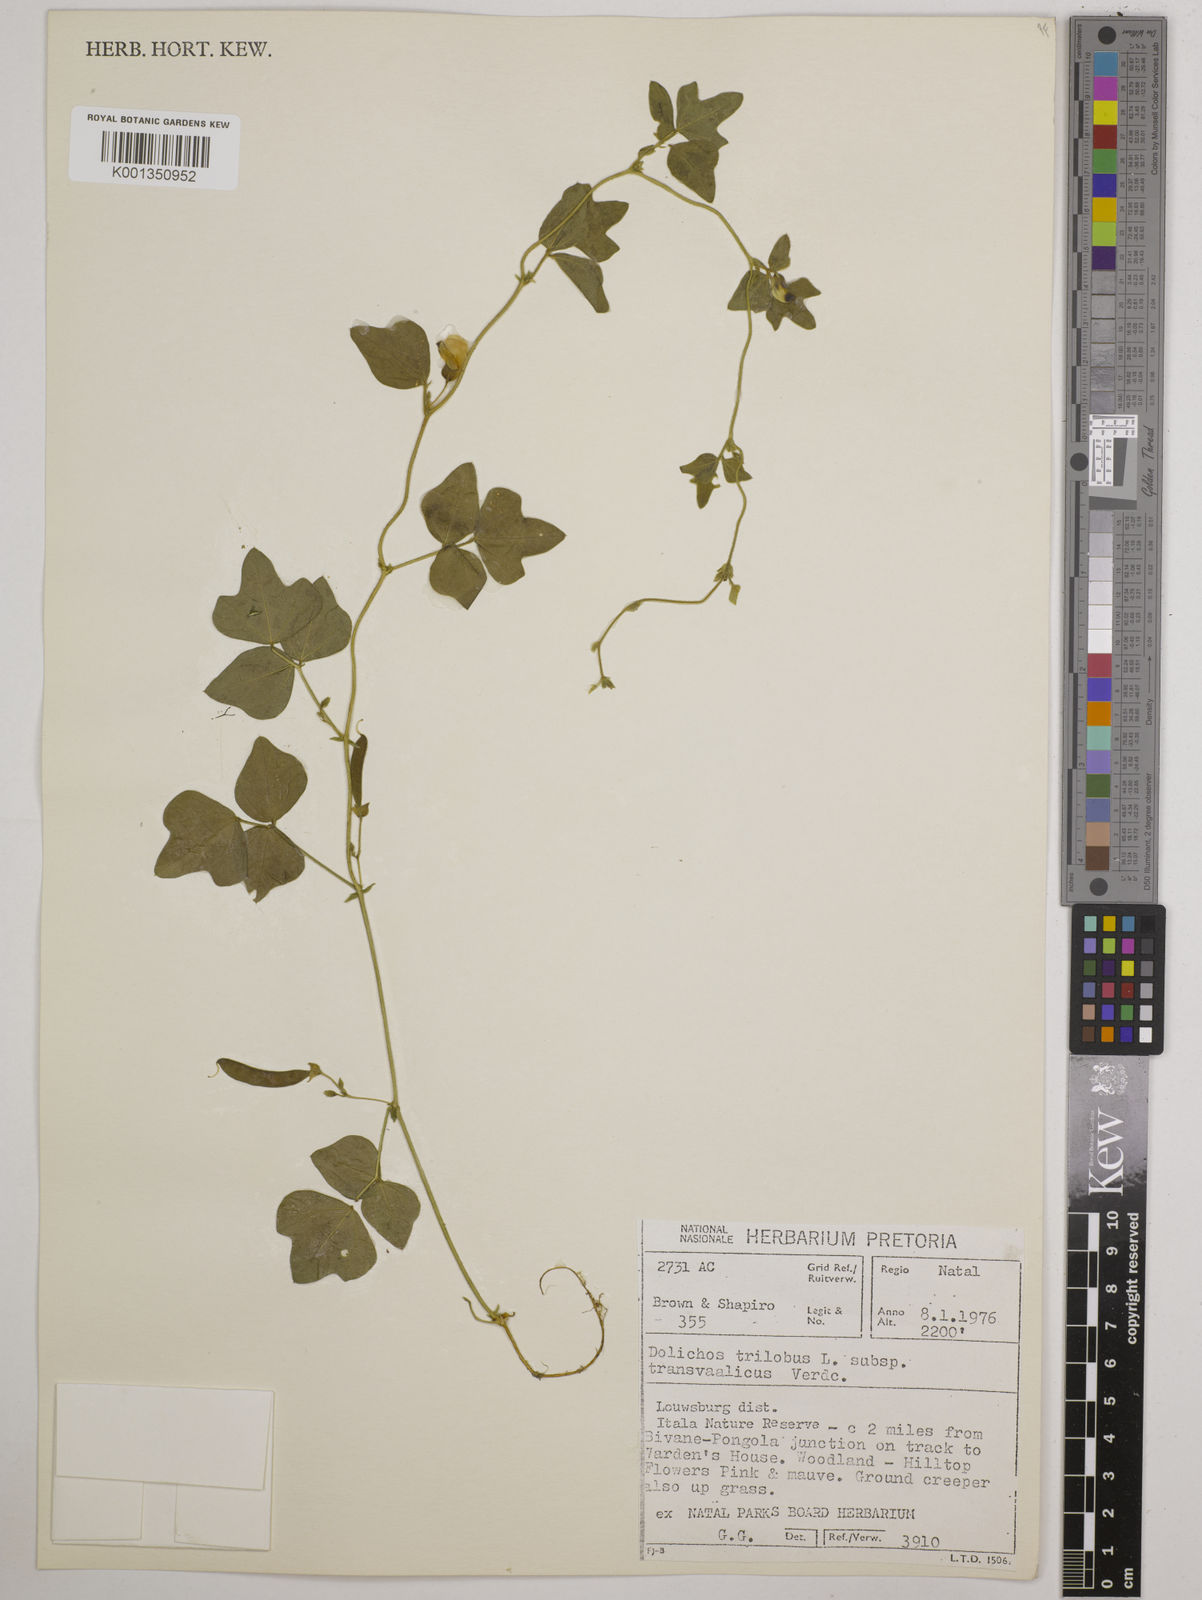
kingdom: Plantae
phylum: Tracheophyta
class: Magnoliopsida
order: Fabales
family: Fabaceae
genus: Dolichos
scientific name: Dolichos
